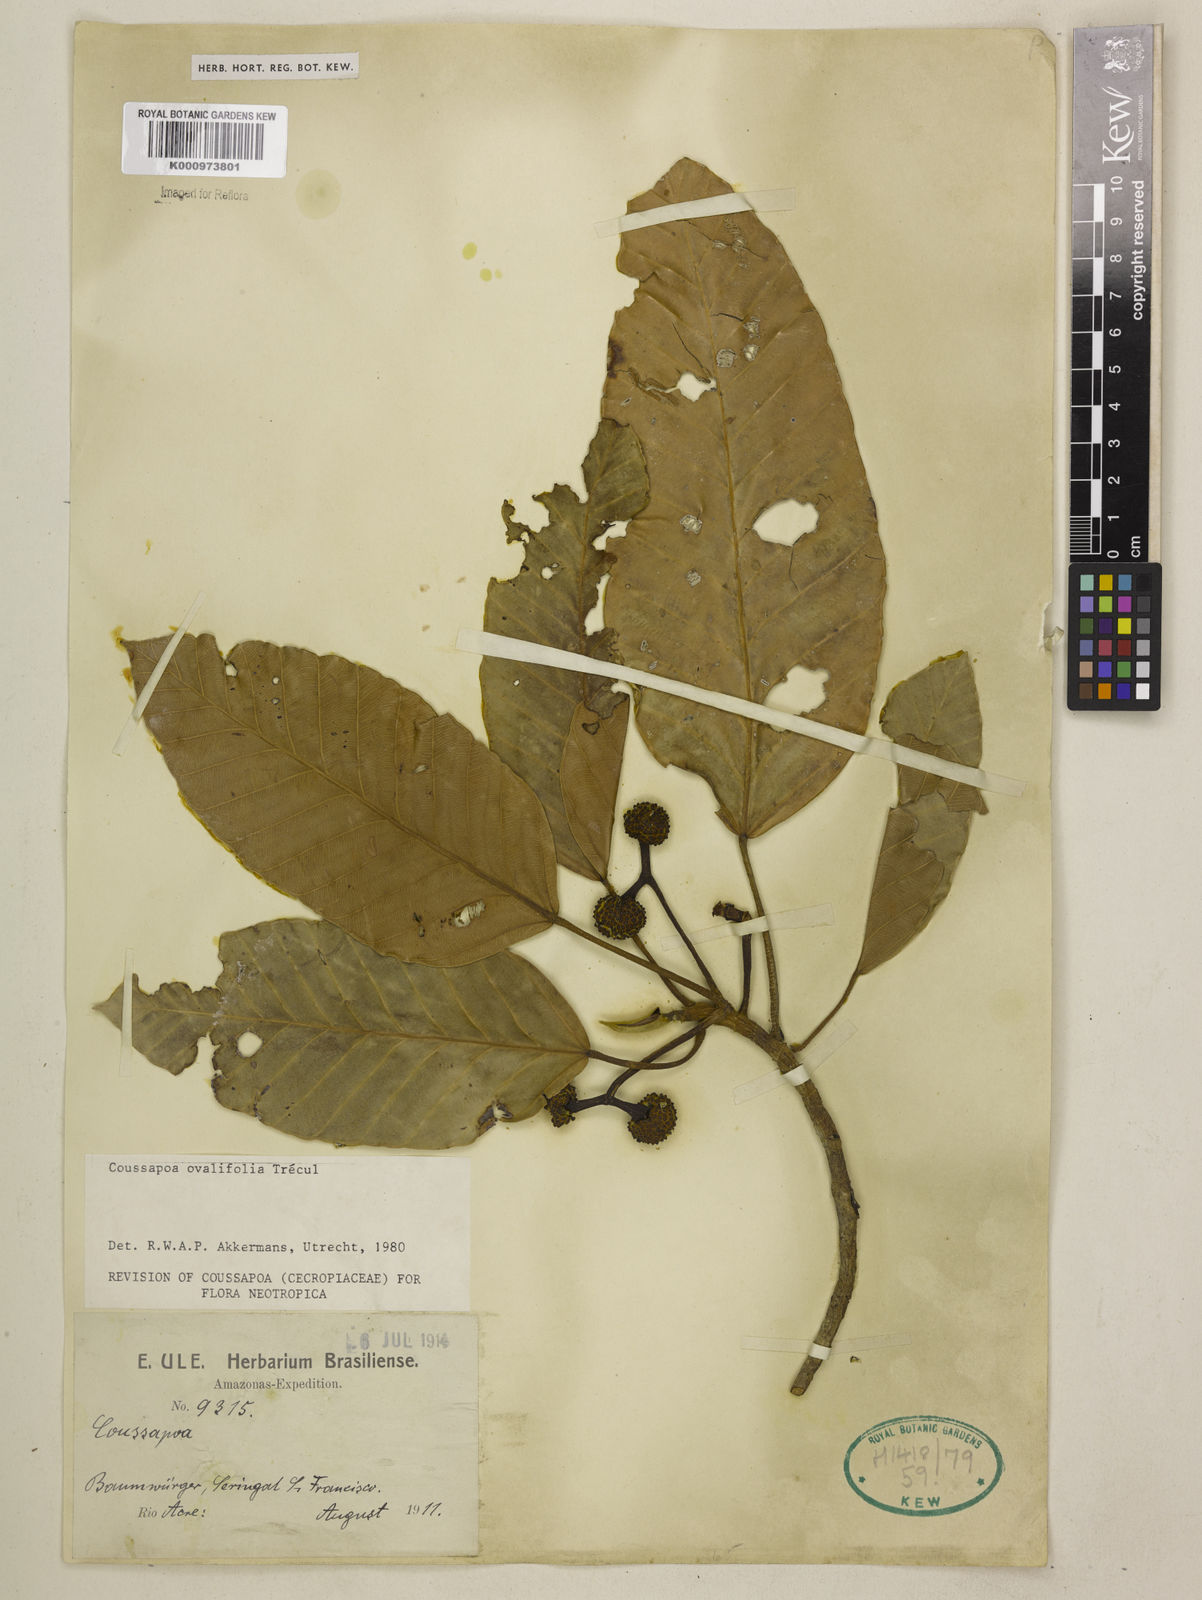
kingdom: Plantae
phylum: Tracheophyta
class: Magnoliopsida
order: Rosales
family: Urticaceae
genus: Coussapoa
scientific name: Coussapoa
